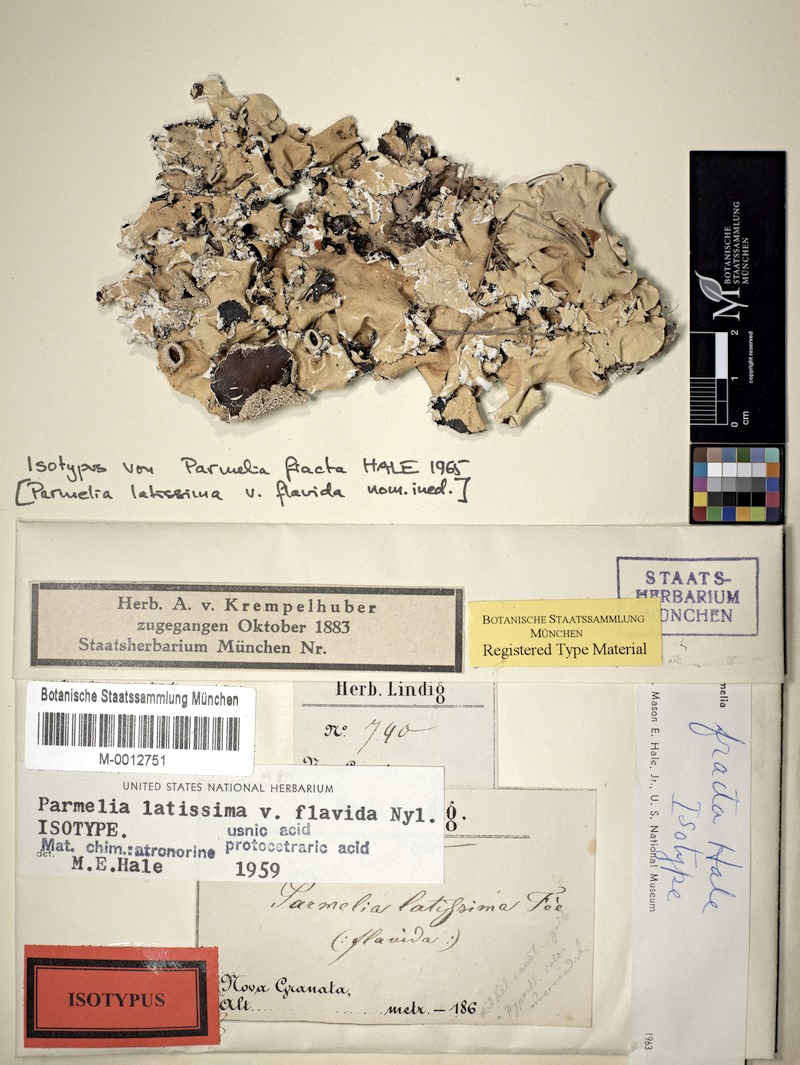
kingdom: Fungi
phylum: Ascomycota
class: Lecanoromycetes
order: Lecanorales
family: Parmeliaceae
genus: Parmotrema
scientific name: Parmotrema fractum
